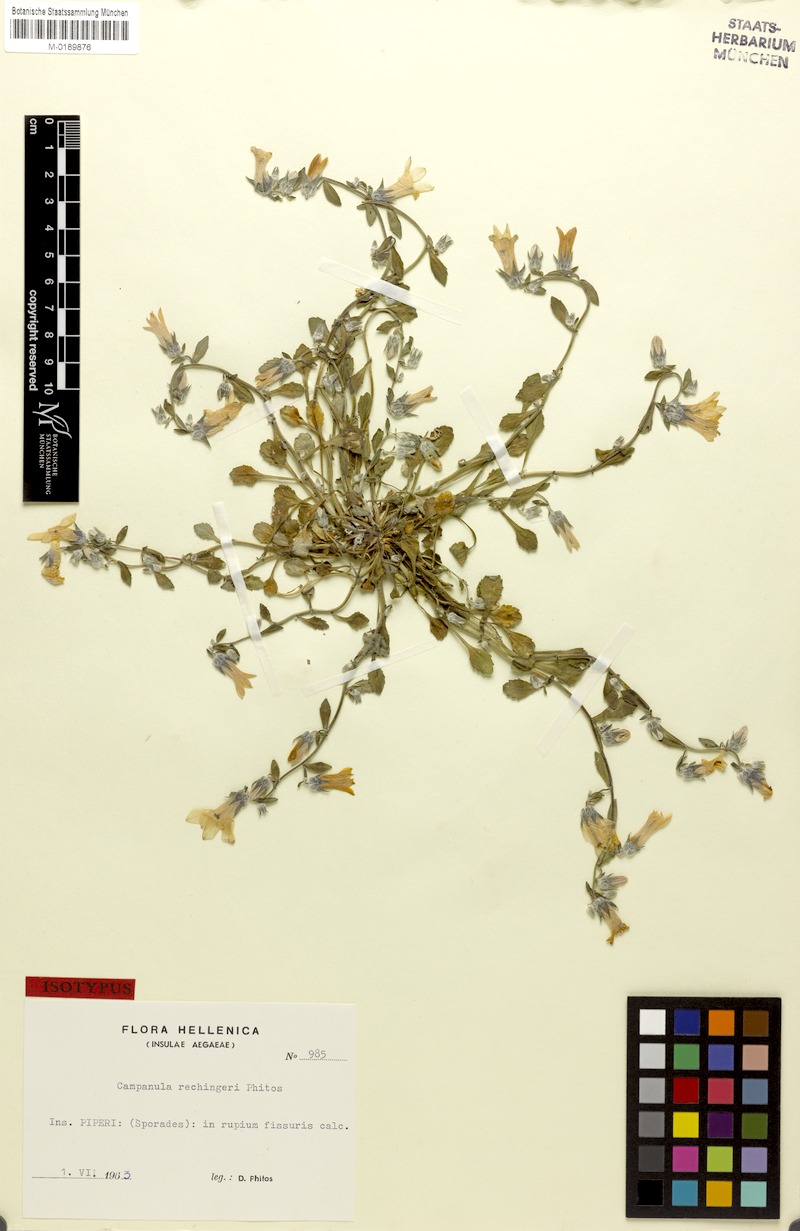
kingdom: Plantae
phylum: Tracheophyta
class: Magnoliopsida
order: Asterales
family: Campanulaceae
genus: Campanula
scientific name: Campanula rechingeri
